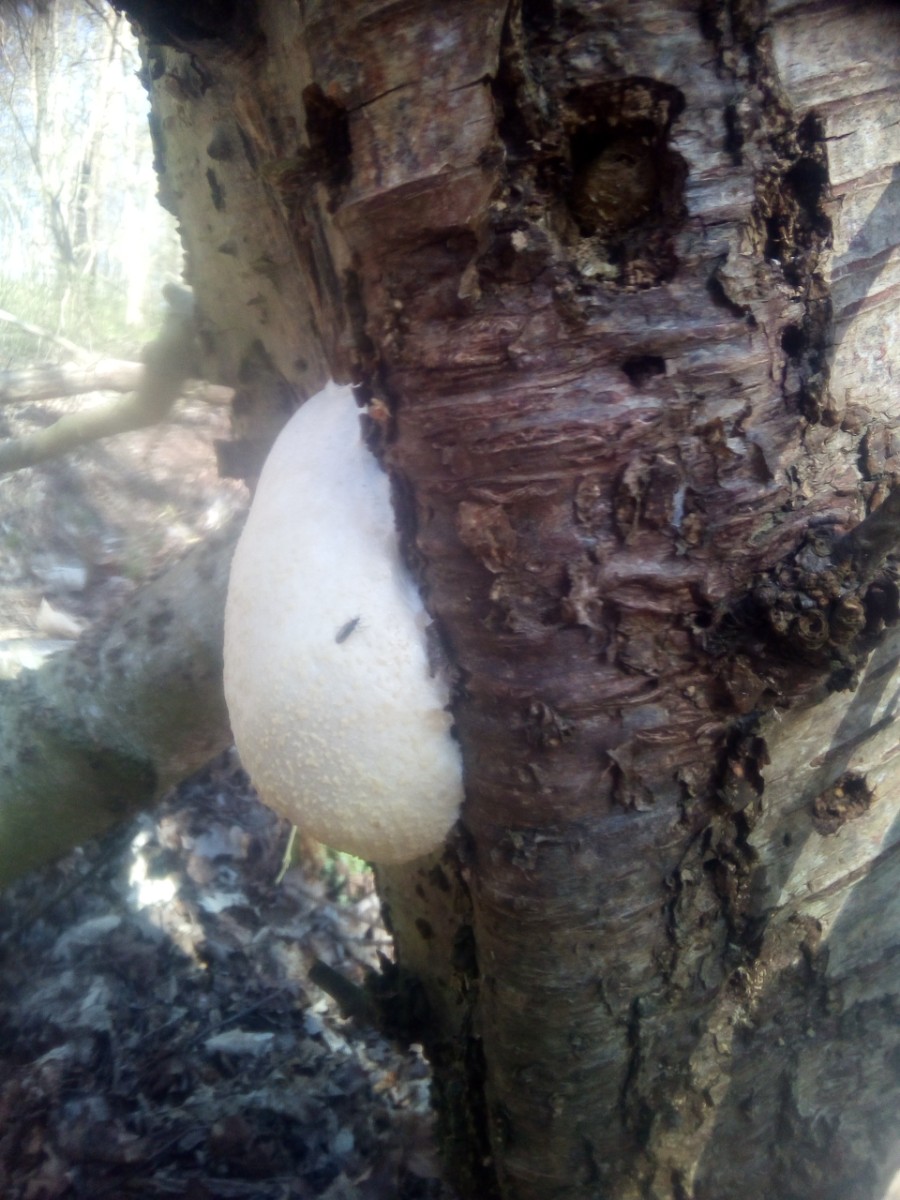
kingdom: Protozoa
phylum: Mycetozoa
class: Myxomycetes
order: Cribrariales
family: Tubiferaceae
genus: Reticularia
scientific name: Reticularia lycoperdon
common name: skinnende støvpude
